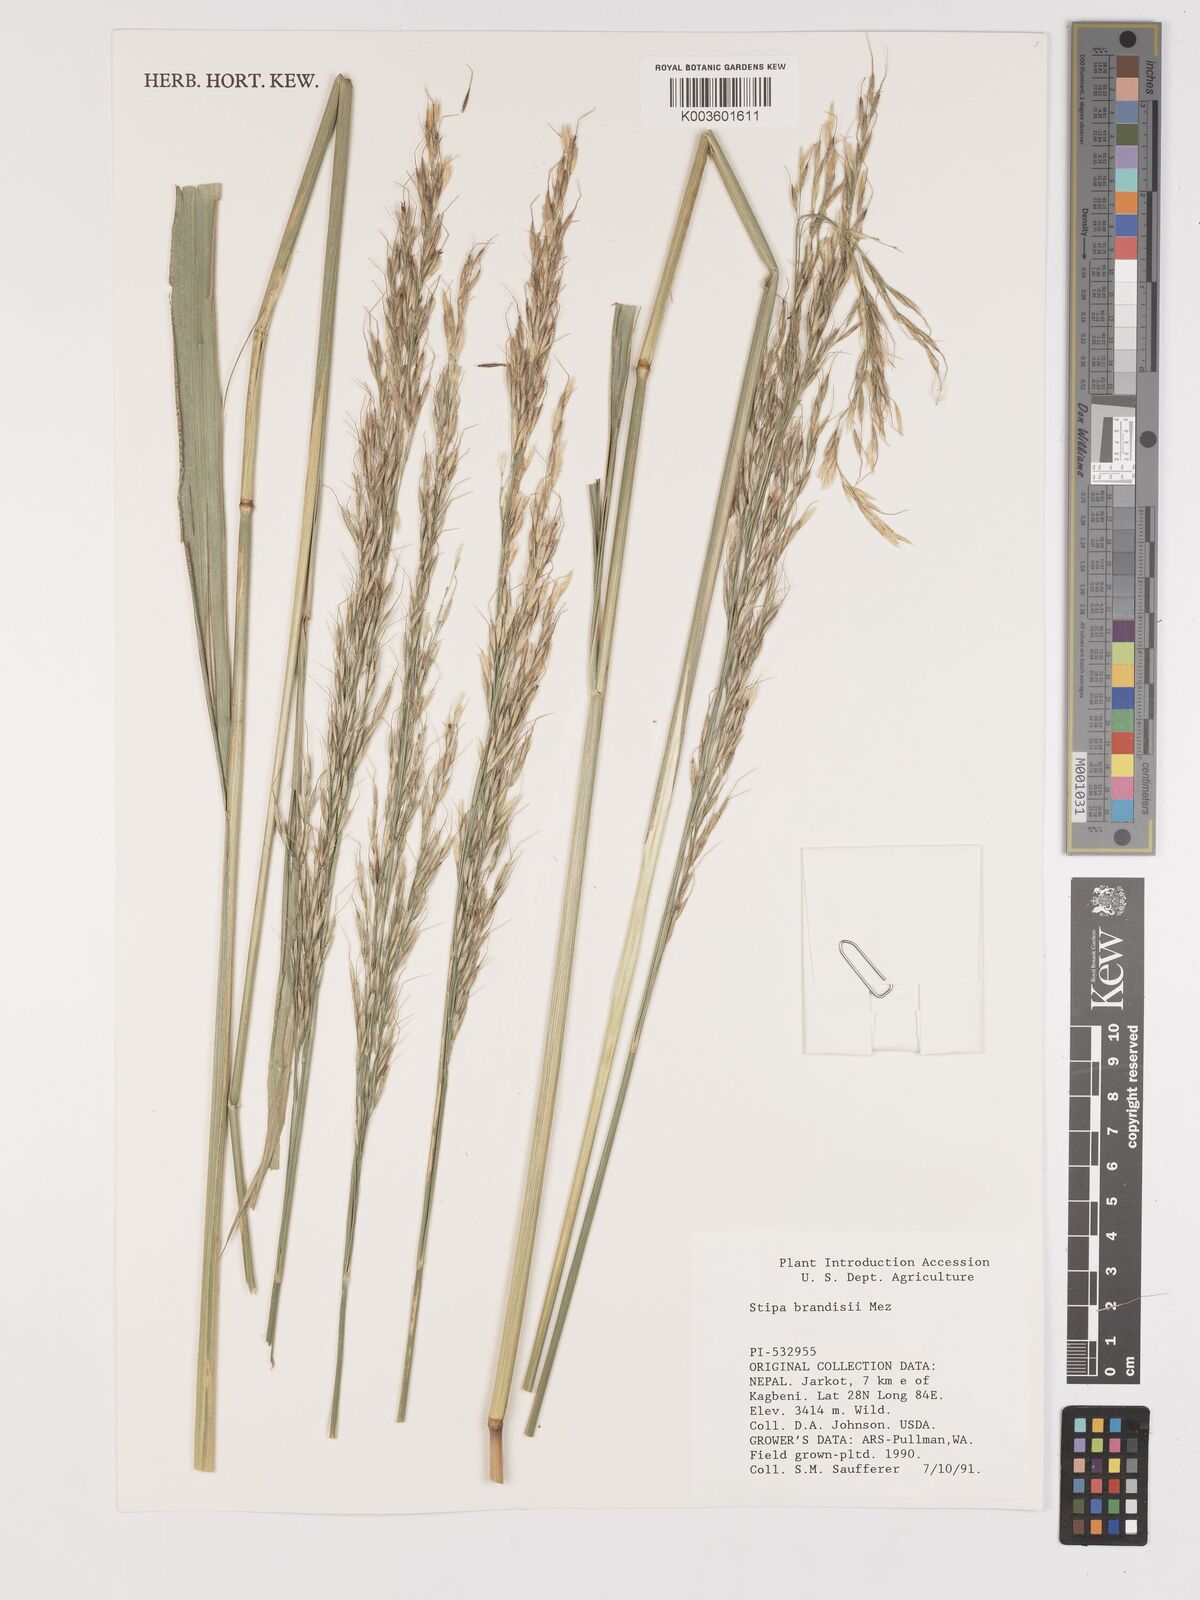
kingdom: Plantae
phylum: Tracheophyta
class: Liliopsida
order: Poales
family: Poaceae
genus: Achnatherum
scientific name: Achnatherum brandisii
